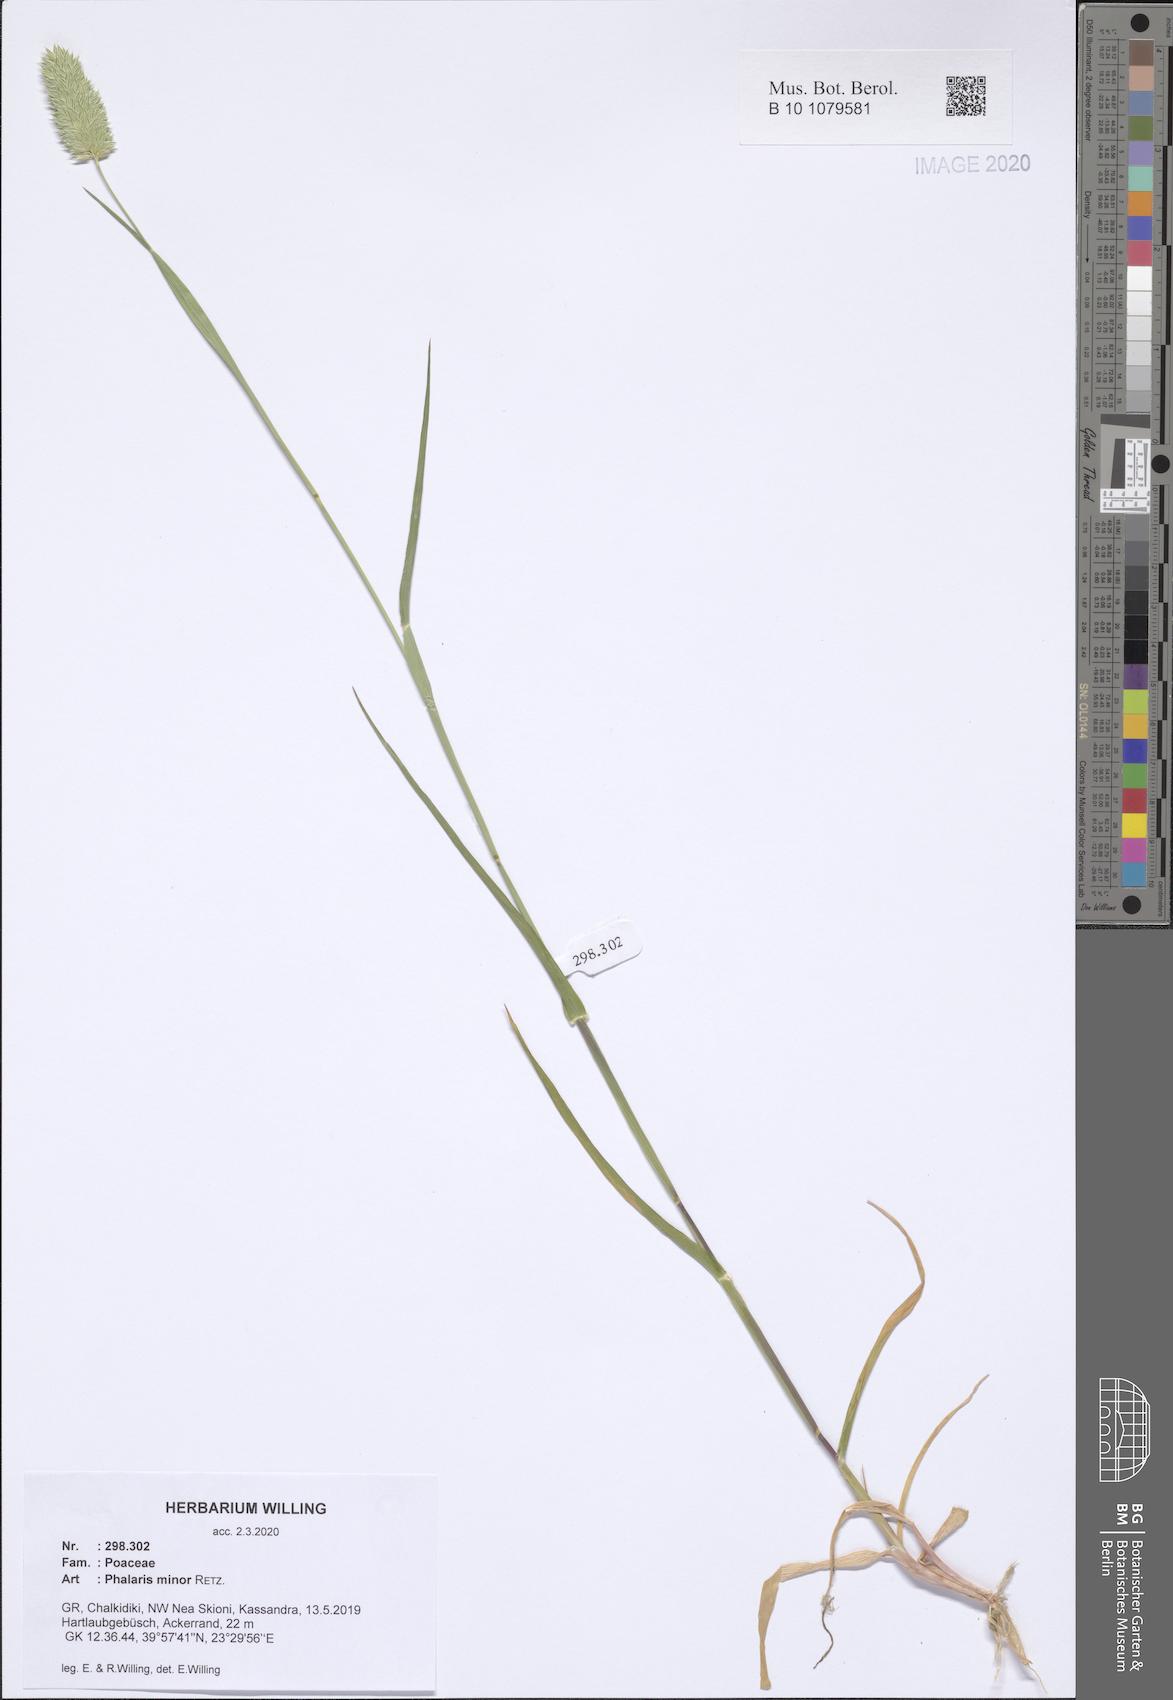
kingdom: Plantae
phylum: Tracheophyta
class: Liliopsida
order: Poales
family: Poaceae
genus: Phalaris
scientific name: Phalaris minor
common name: Littleseed canarygrass
